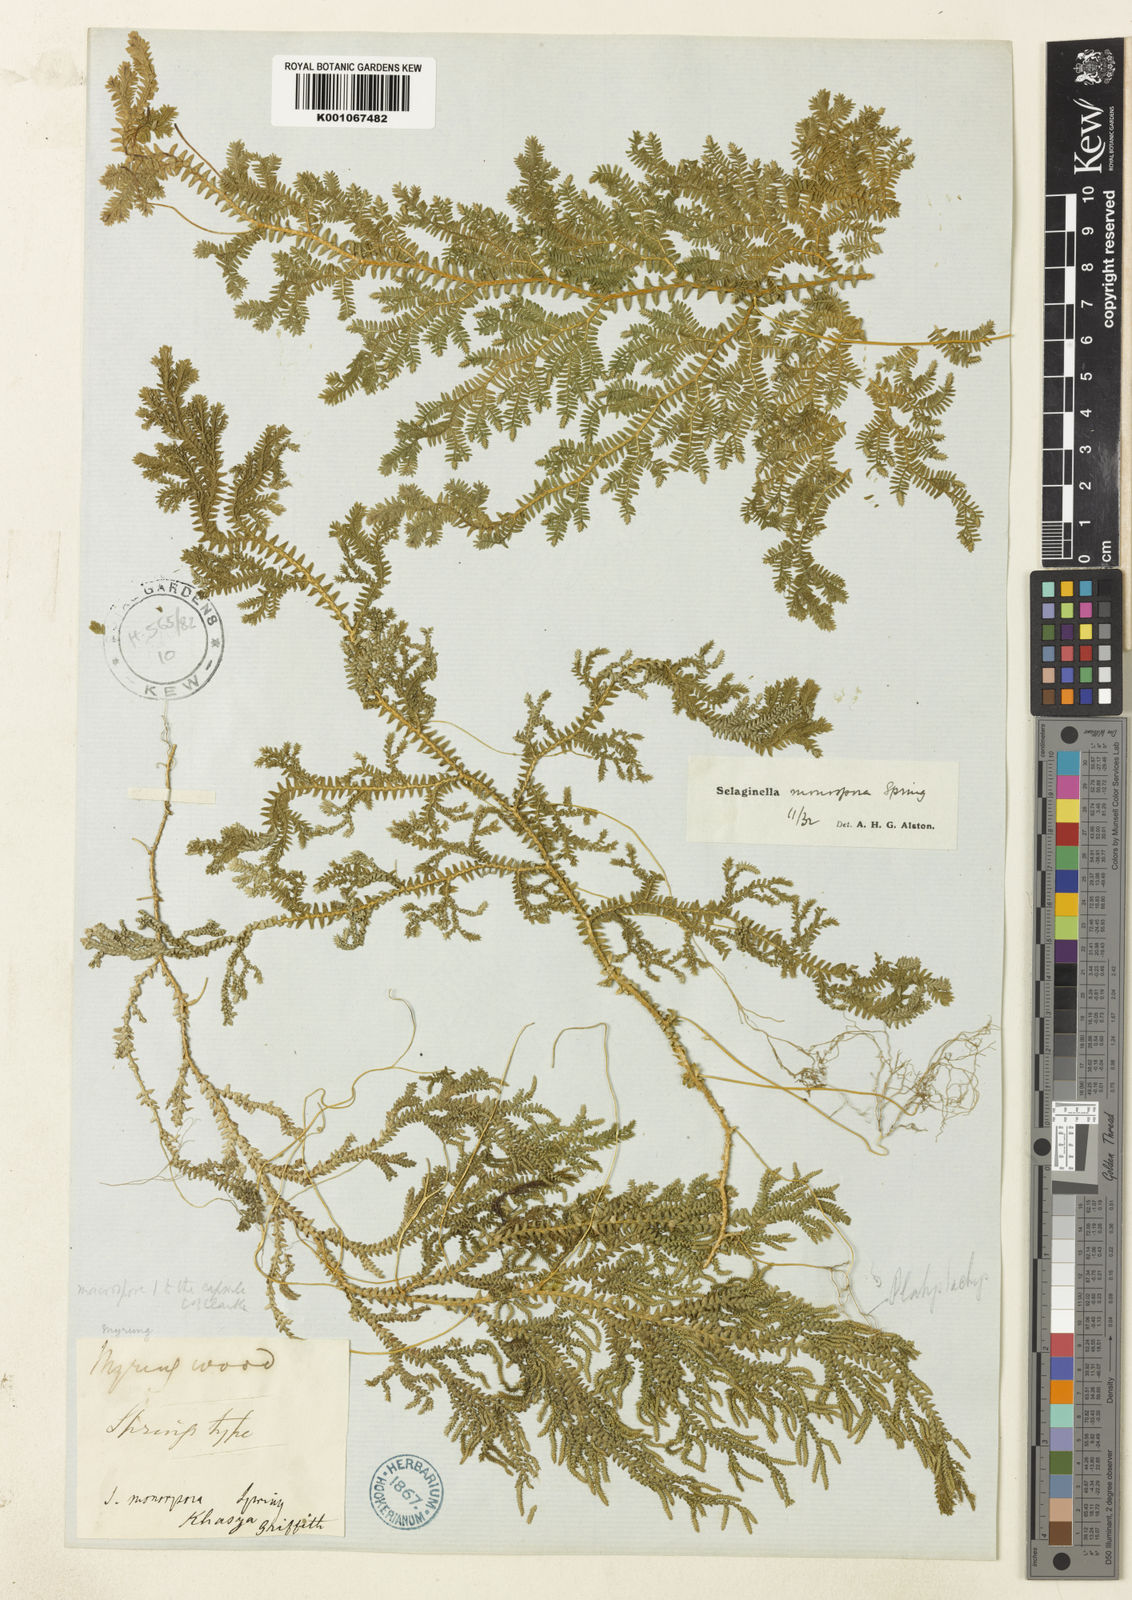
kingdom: Plantae
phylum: Tracheophyta
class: Lycopodiopsida
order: Selaginellales
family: Selaginellaceae
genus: Selaginella
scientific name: Selaginella monospora
